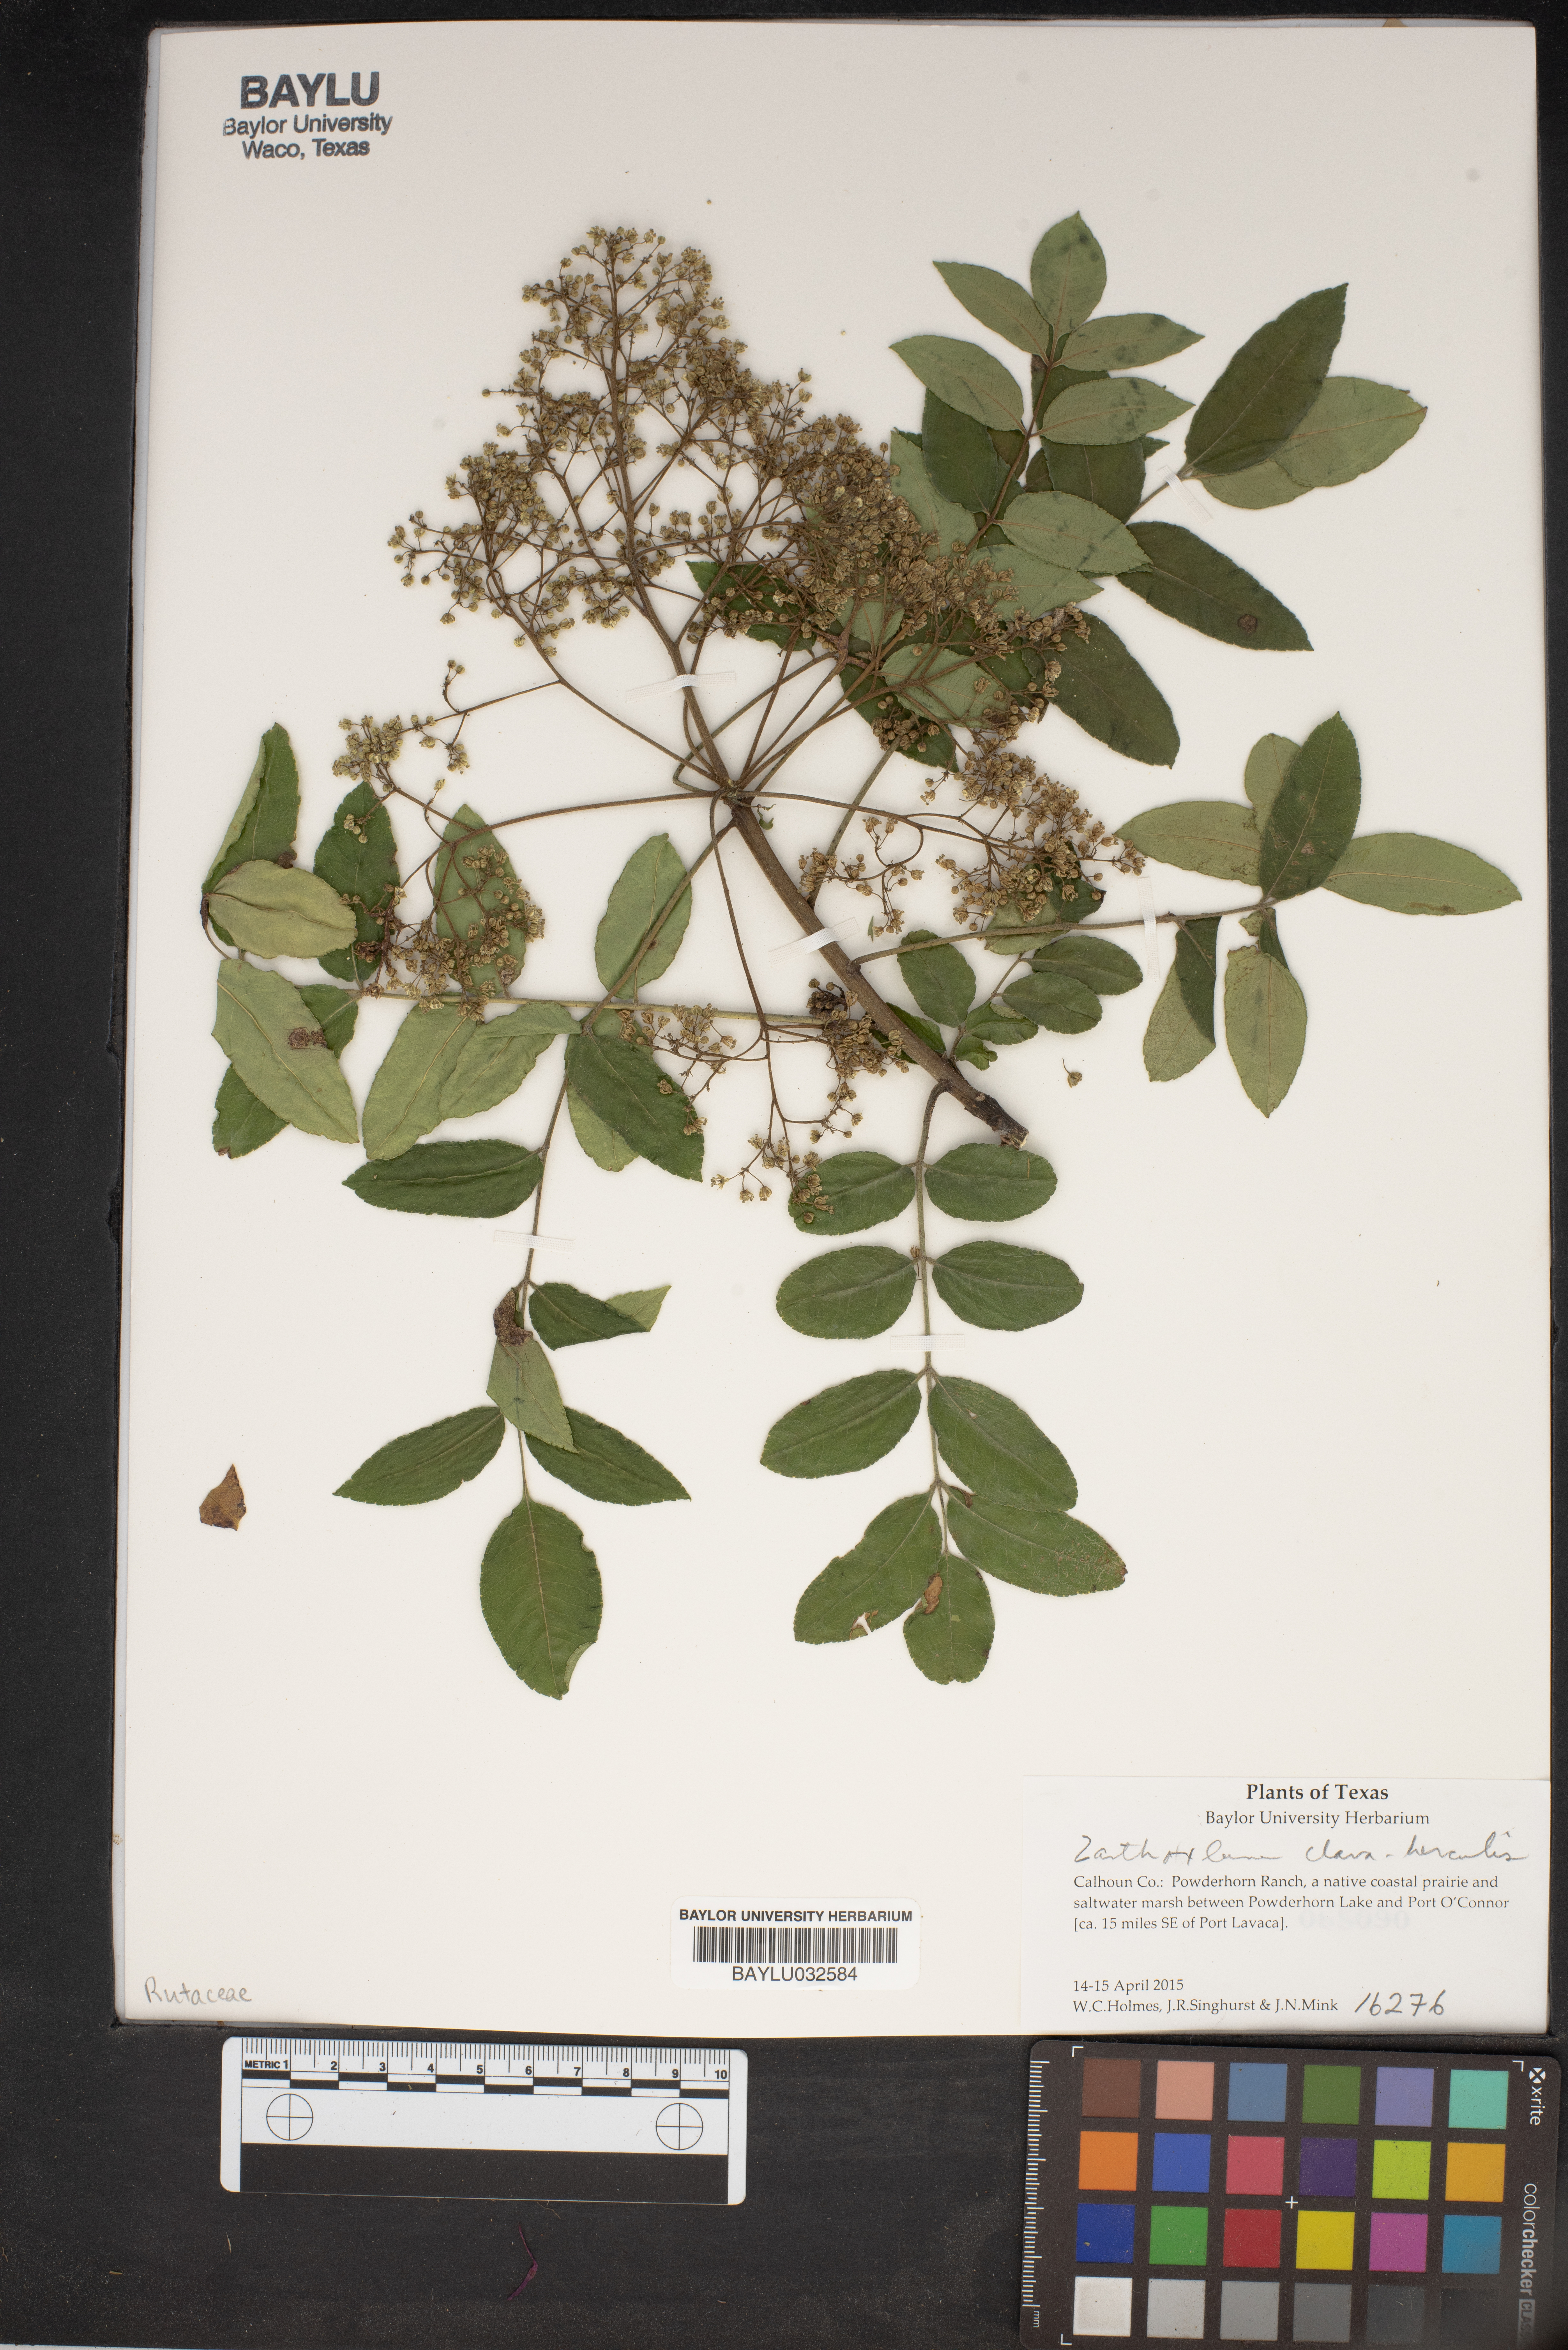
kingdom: Plantae
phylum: Tracheophyta
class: Magnoliopsida
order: Sapindales
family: Rutaceae
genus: Zanthoxylum
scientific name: Zanthoxylum avicennae
